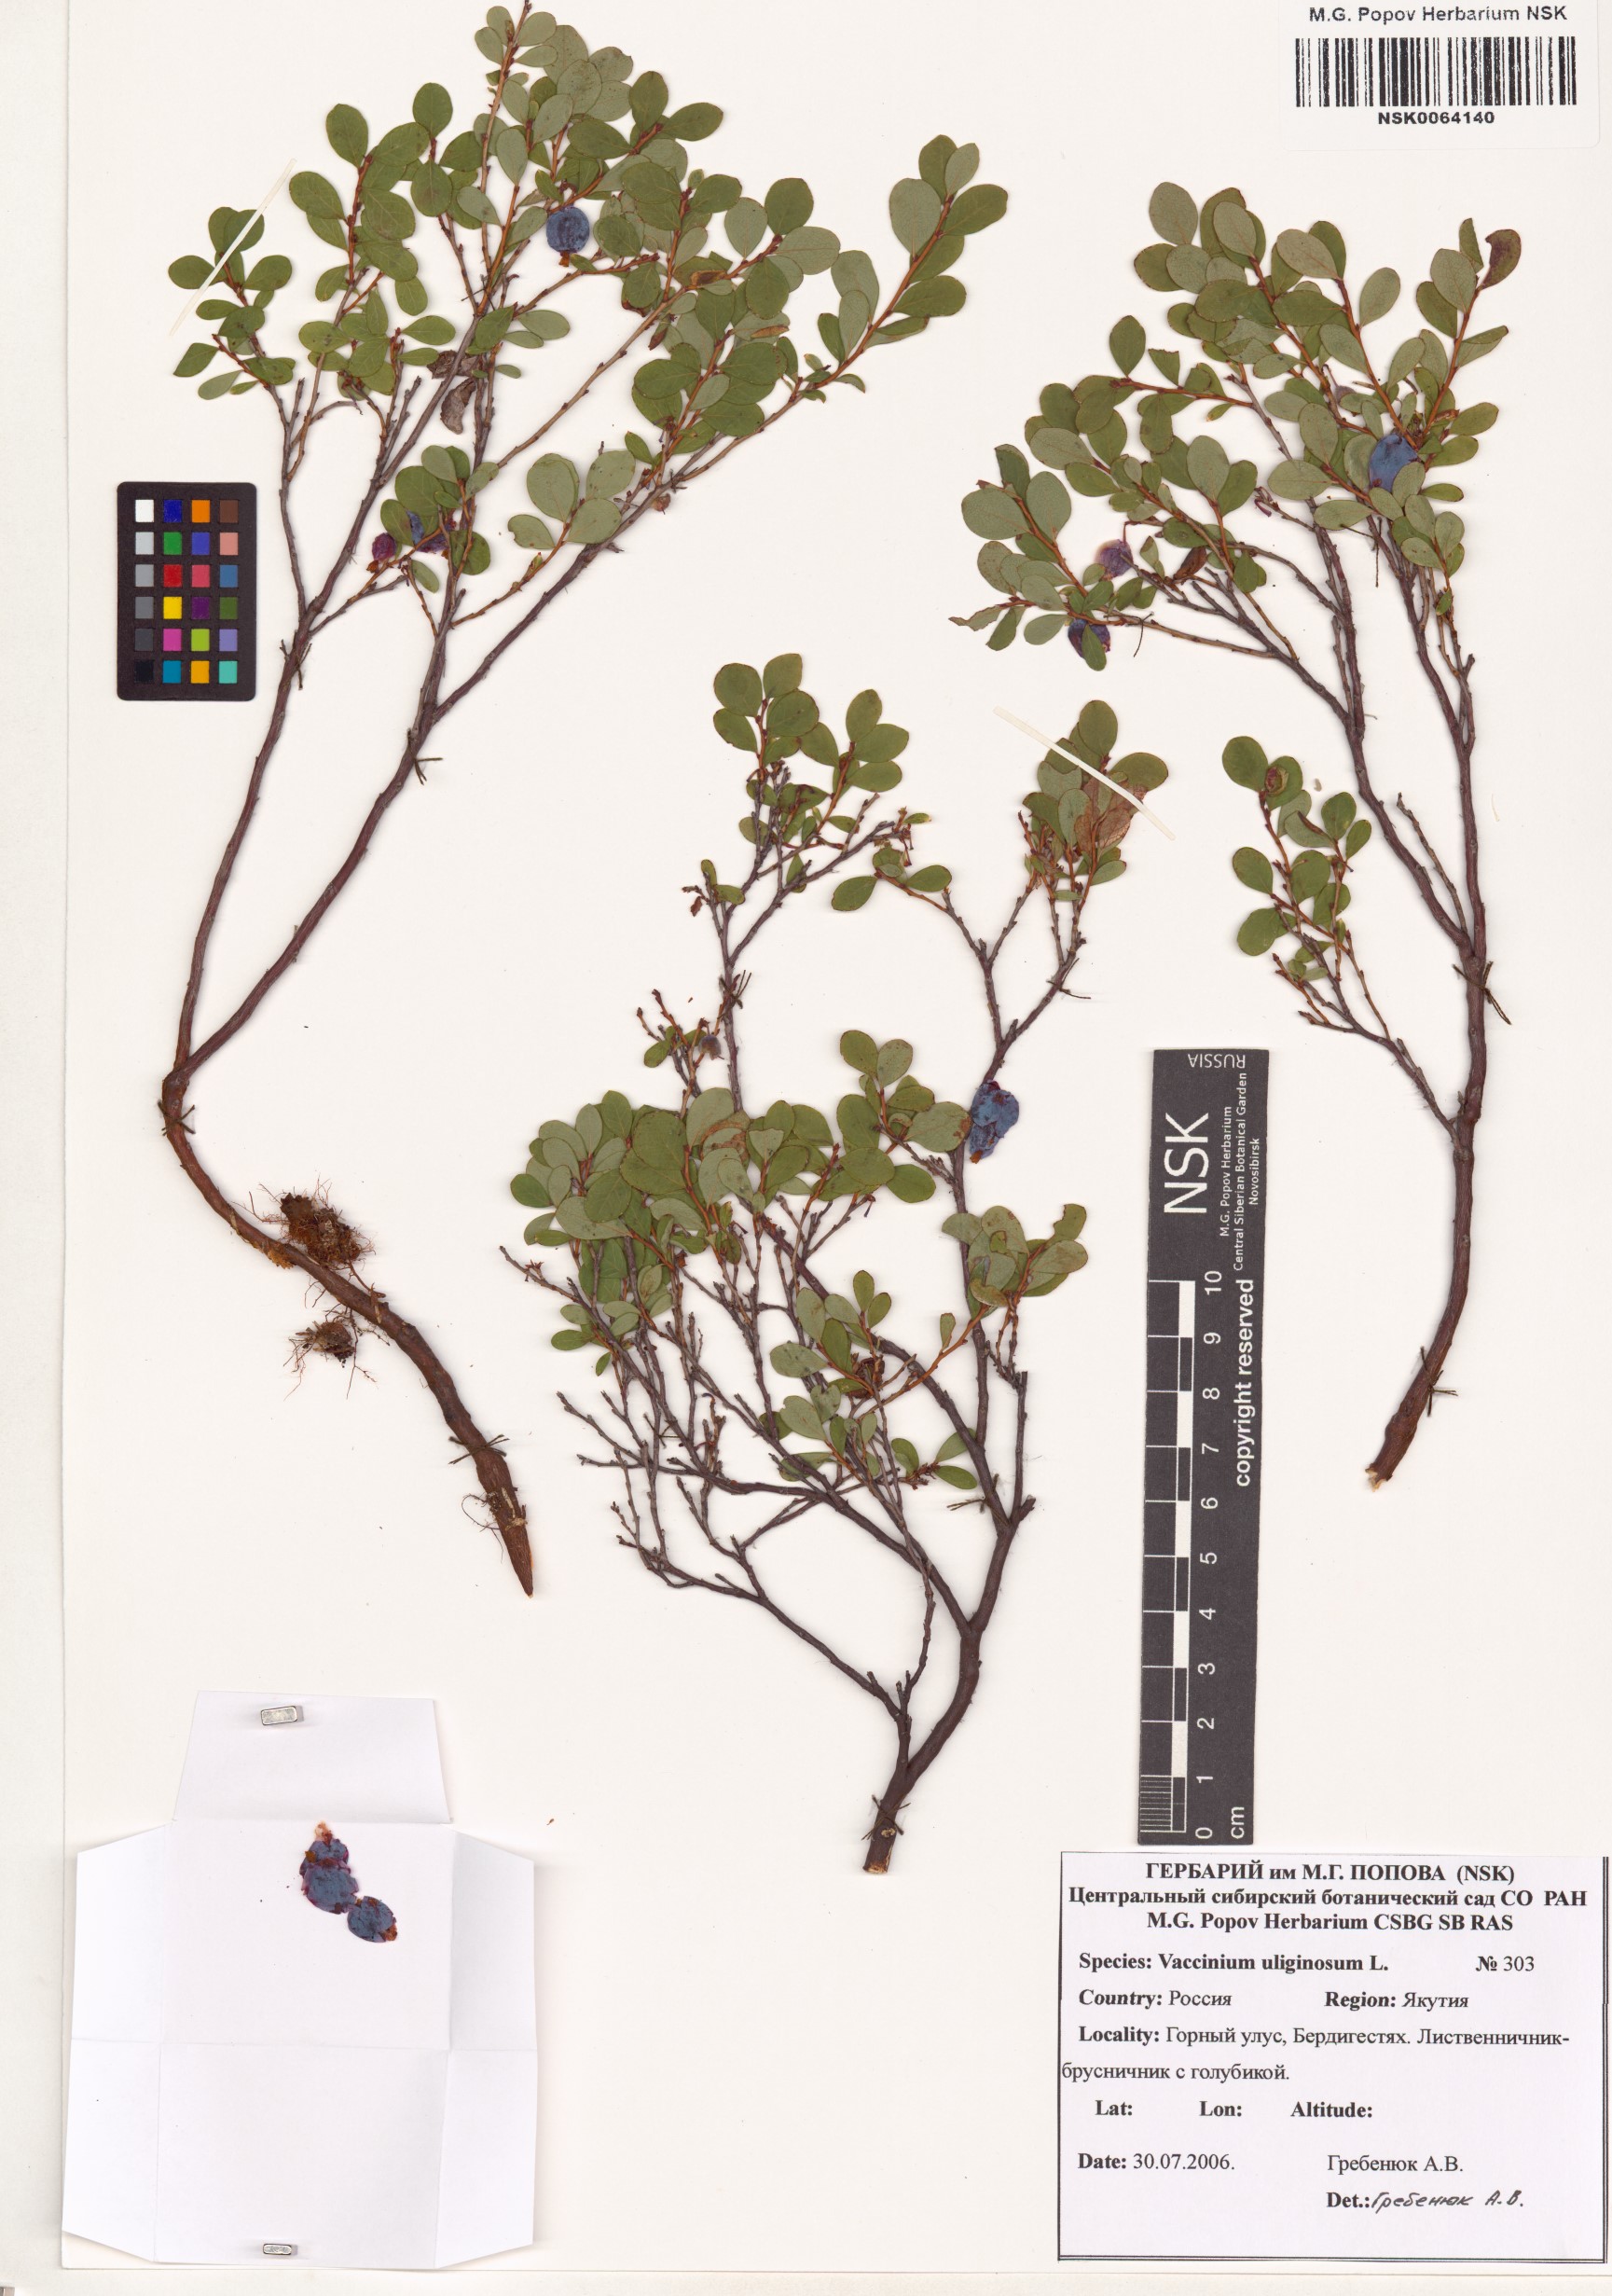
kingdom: Plantae
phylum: Tracheophyta
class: Magnoliopsida
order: Ericales
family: Ericaceae
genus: Vaccinium
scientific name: Vaccinium uliginosum
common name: Bog bilberry
